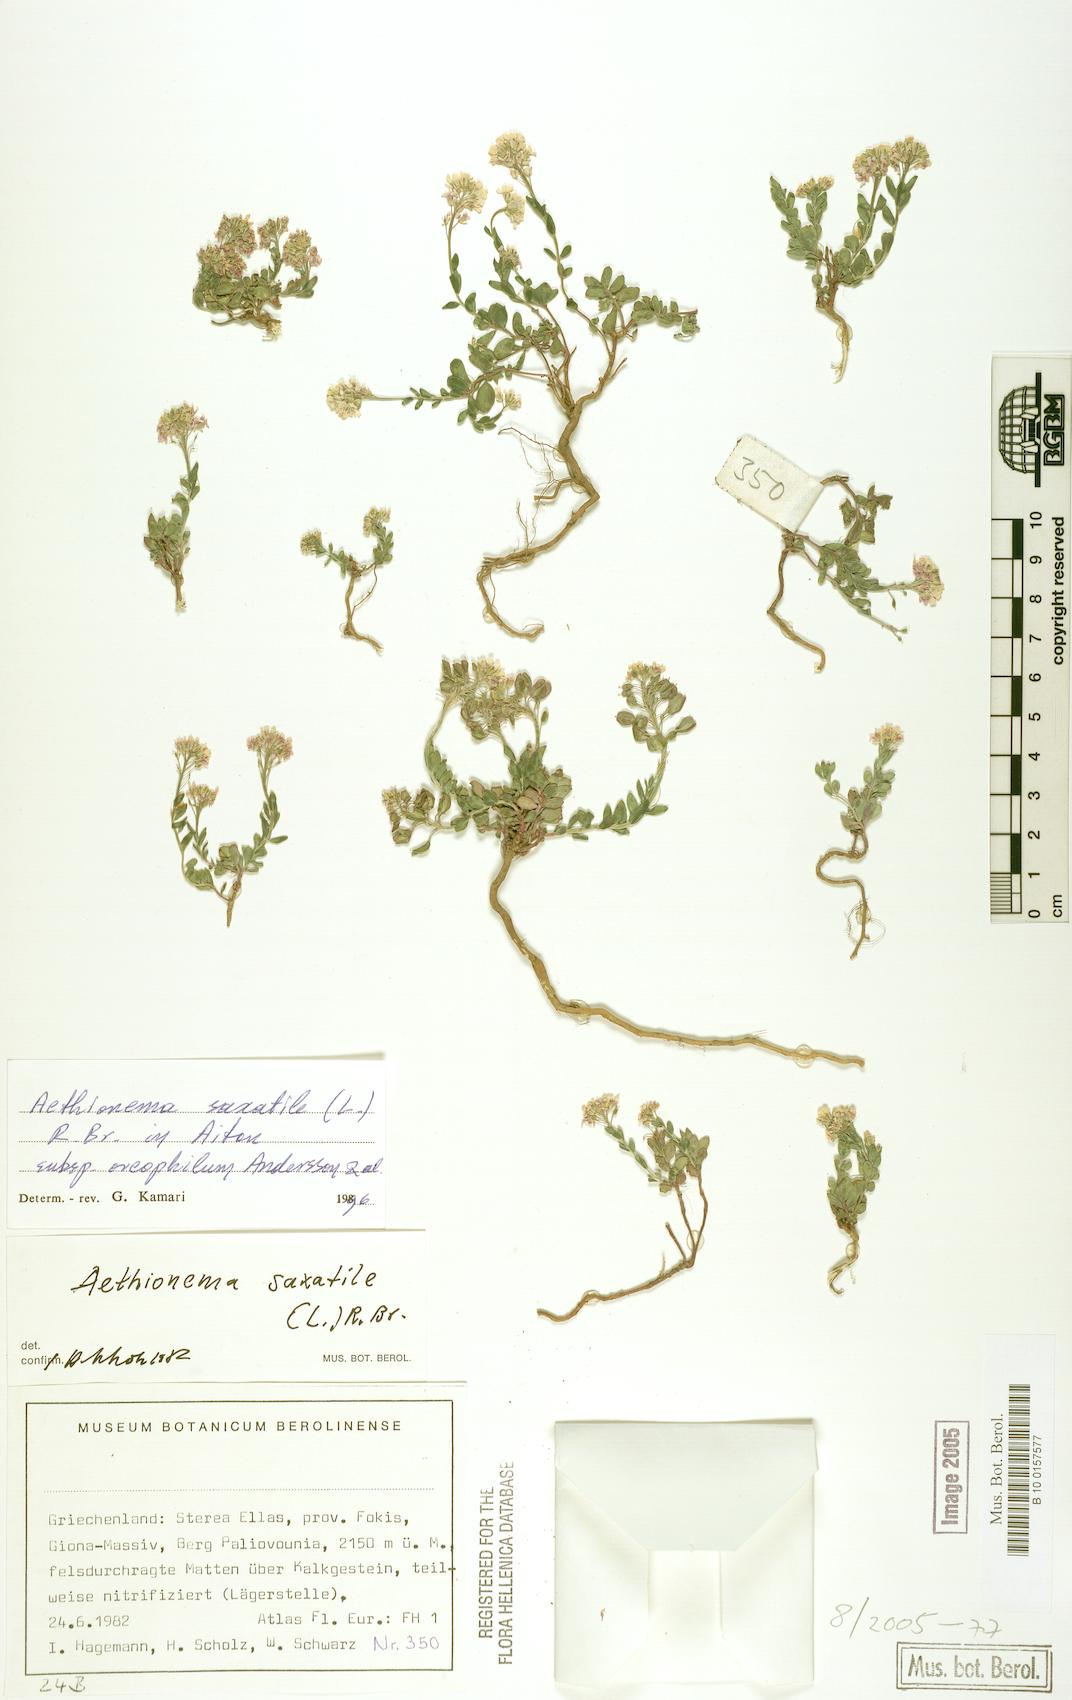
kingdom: Plantae
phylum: Tracheophyta
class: Magnoliopsida
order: Brassicales
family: Brassicaceae
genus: Aethionema
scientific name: Aethionema saxatile
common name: Burnt candytuft
